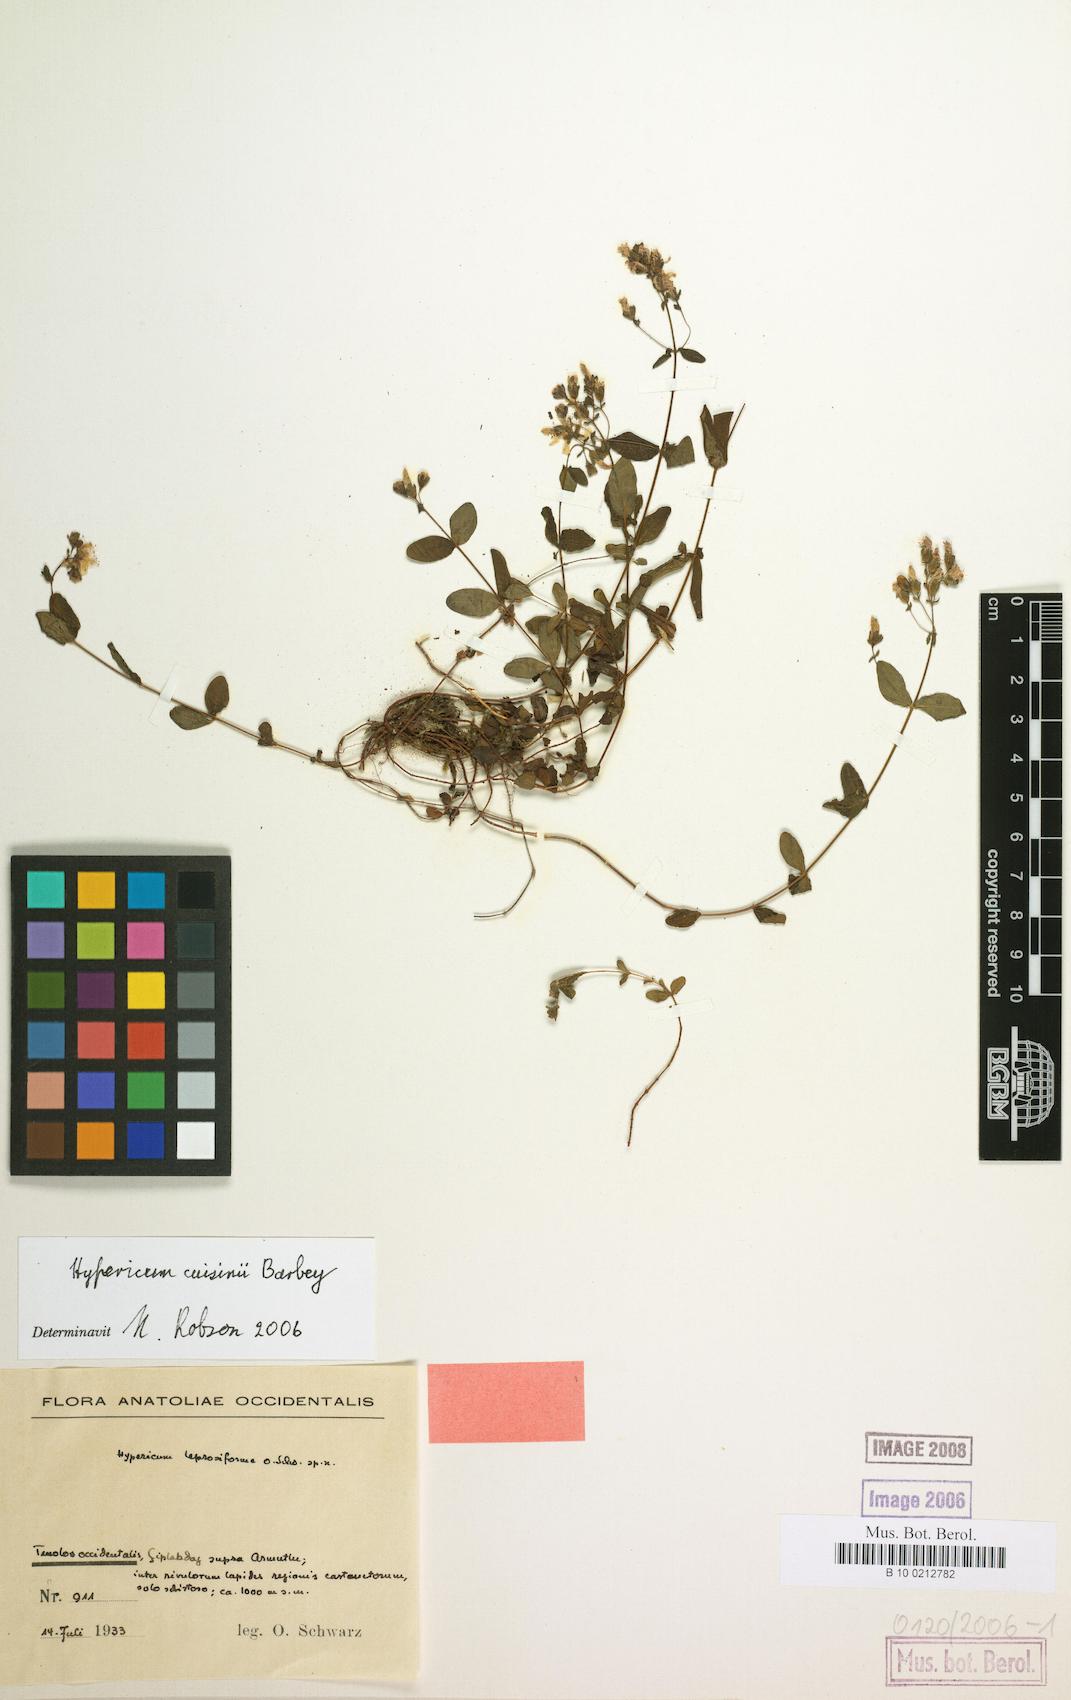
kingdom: Plantae
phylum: Tracheophyta
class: Magnoliopsida
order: Malpighiales
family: Hypericaceae
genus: Hypericum
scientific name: Hypericum cuisinii
